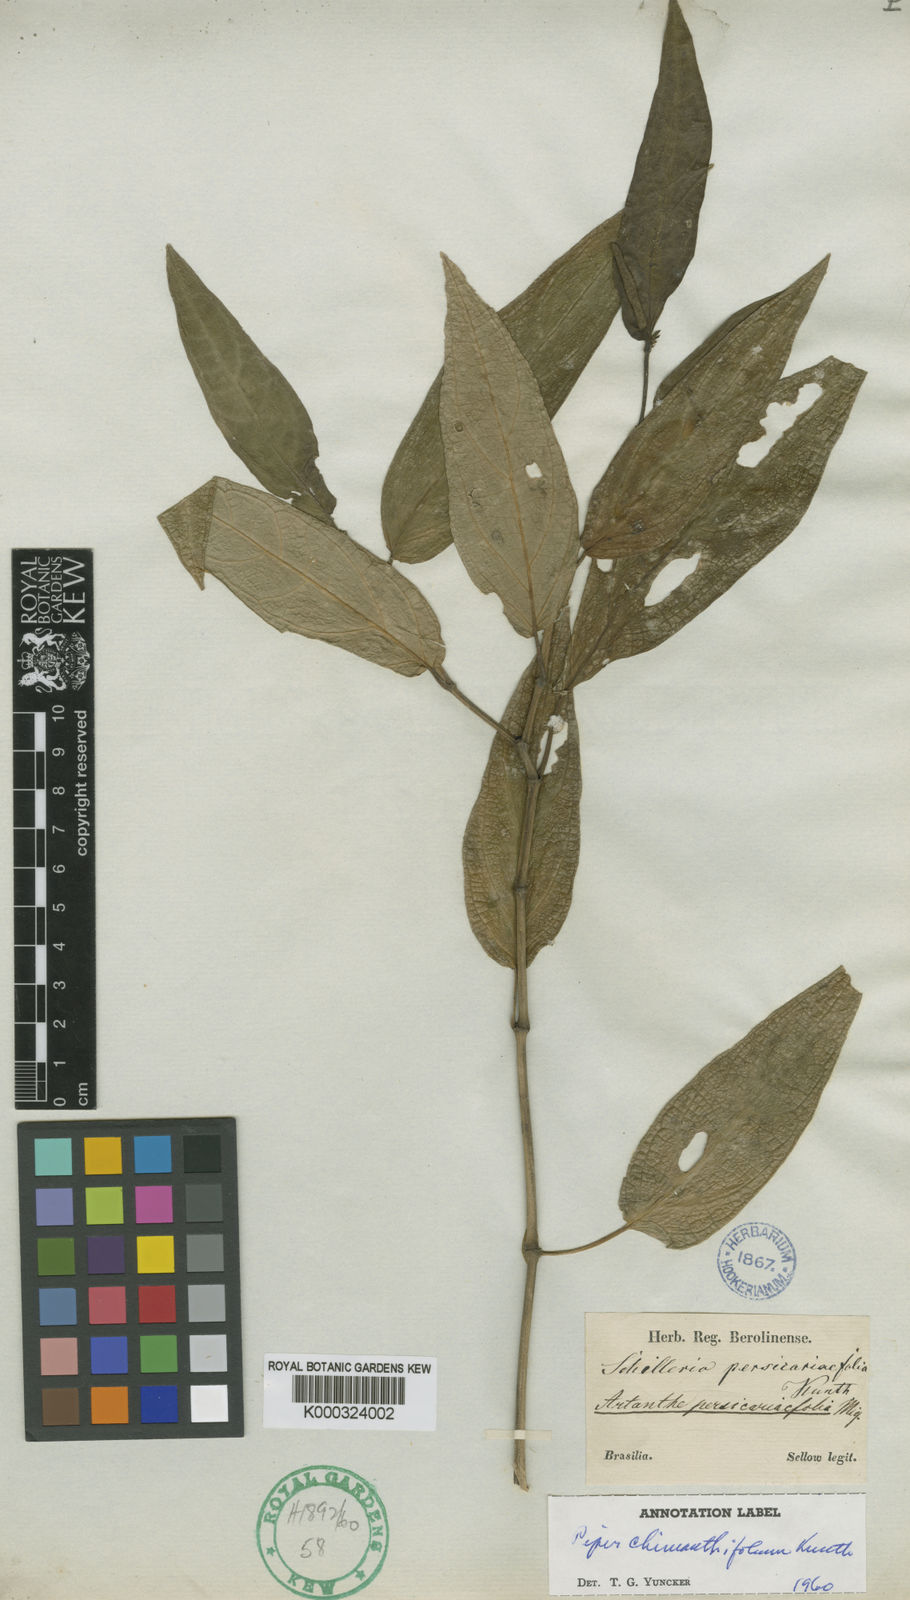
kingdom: Plantae
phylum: Tracheophyta
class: Magnoliopsida
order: Piperales
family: Piperaceae
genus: Piper
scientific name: Piper
